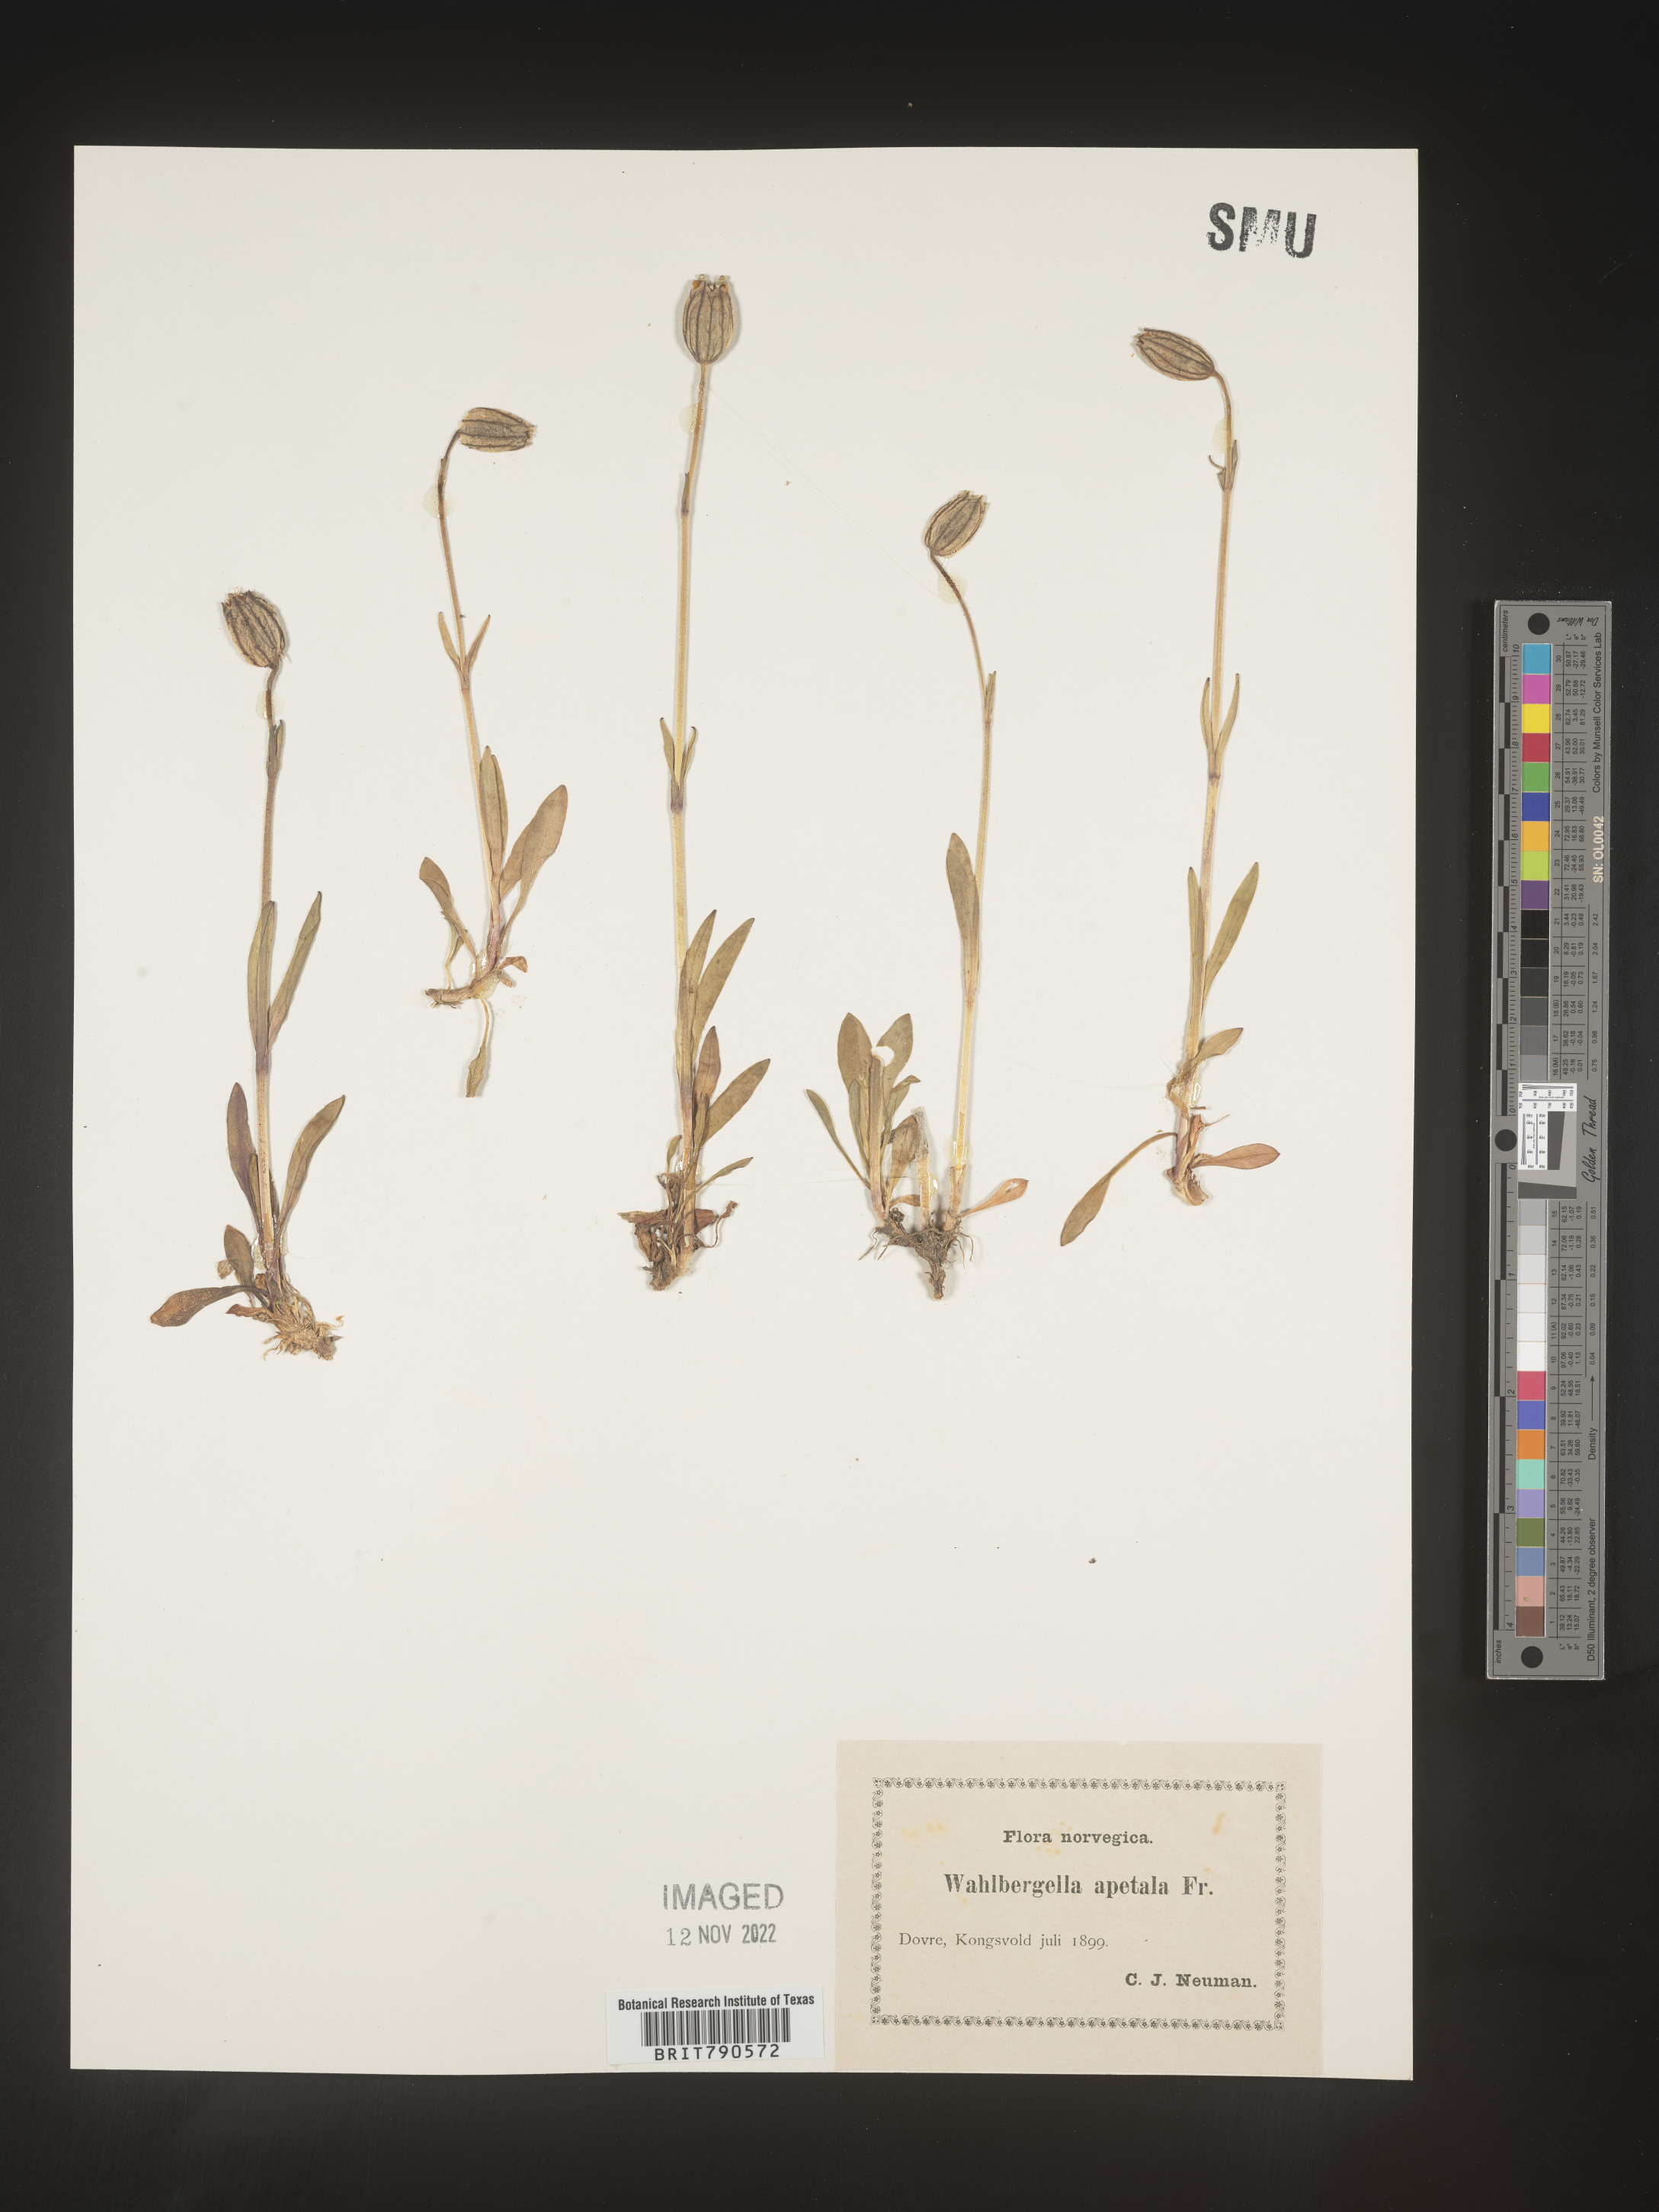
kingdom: Plantae
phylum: Tracheophyta
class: Magnoliopsida
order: Caryophyllales
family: Caryophyllaceae
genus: Silene
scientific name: Silene
